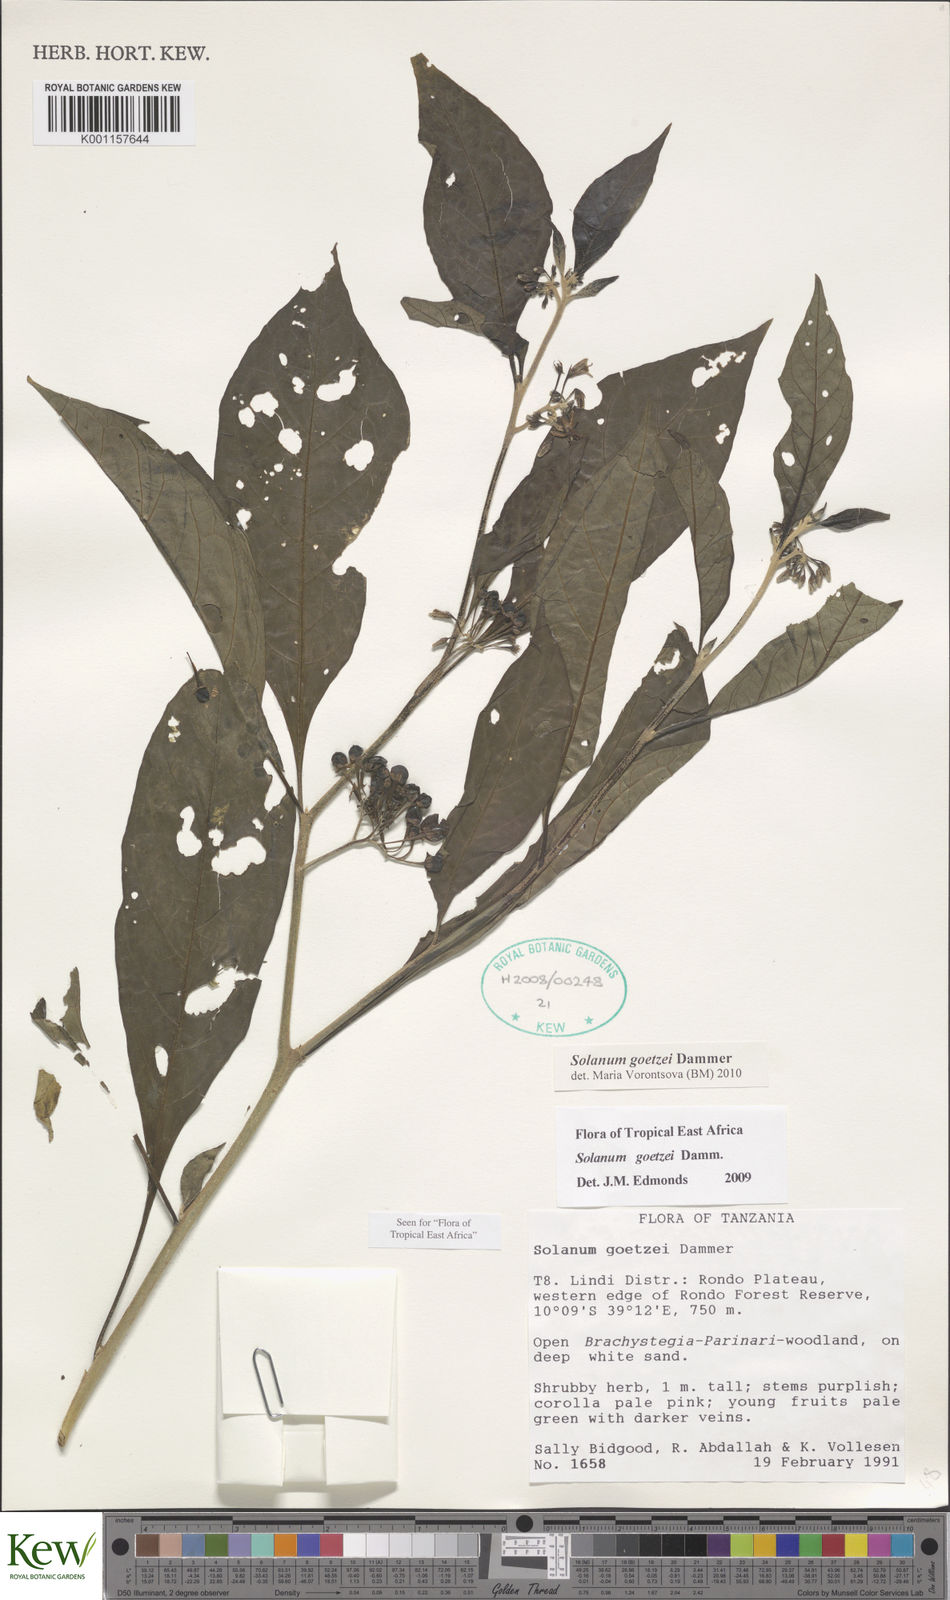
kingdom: Plantae
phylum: Tracheophyta
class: Magnoliopsida
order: Solanales
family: Solanaceae
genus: Solanum
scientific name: Solanum goetzei
